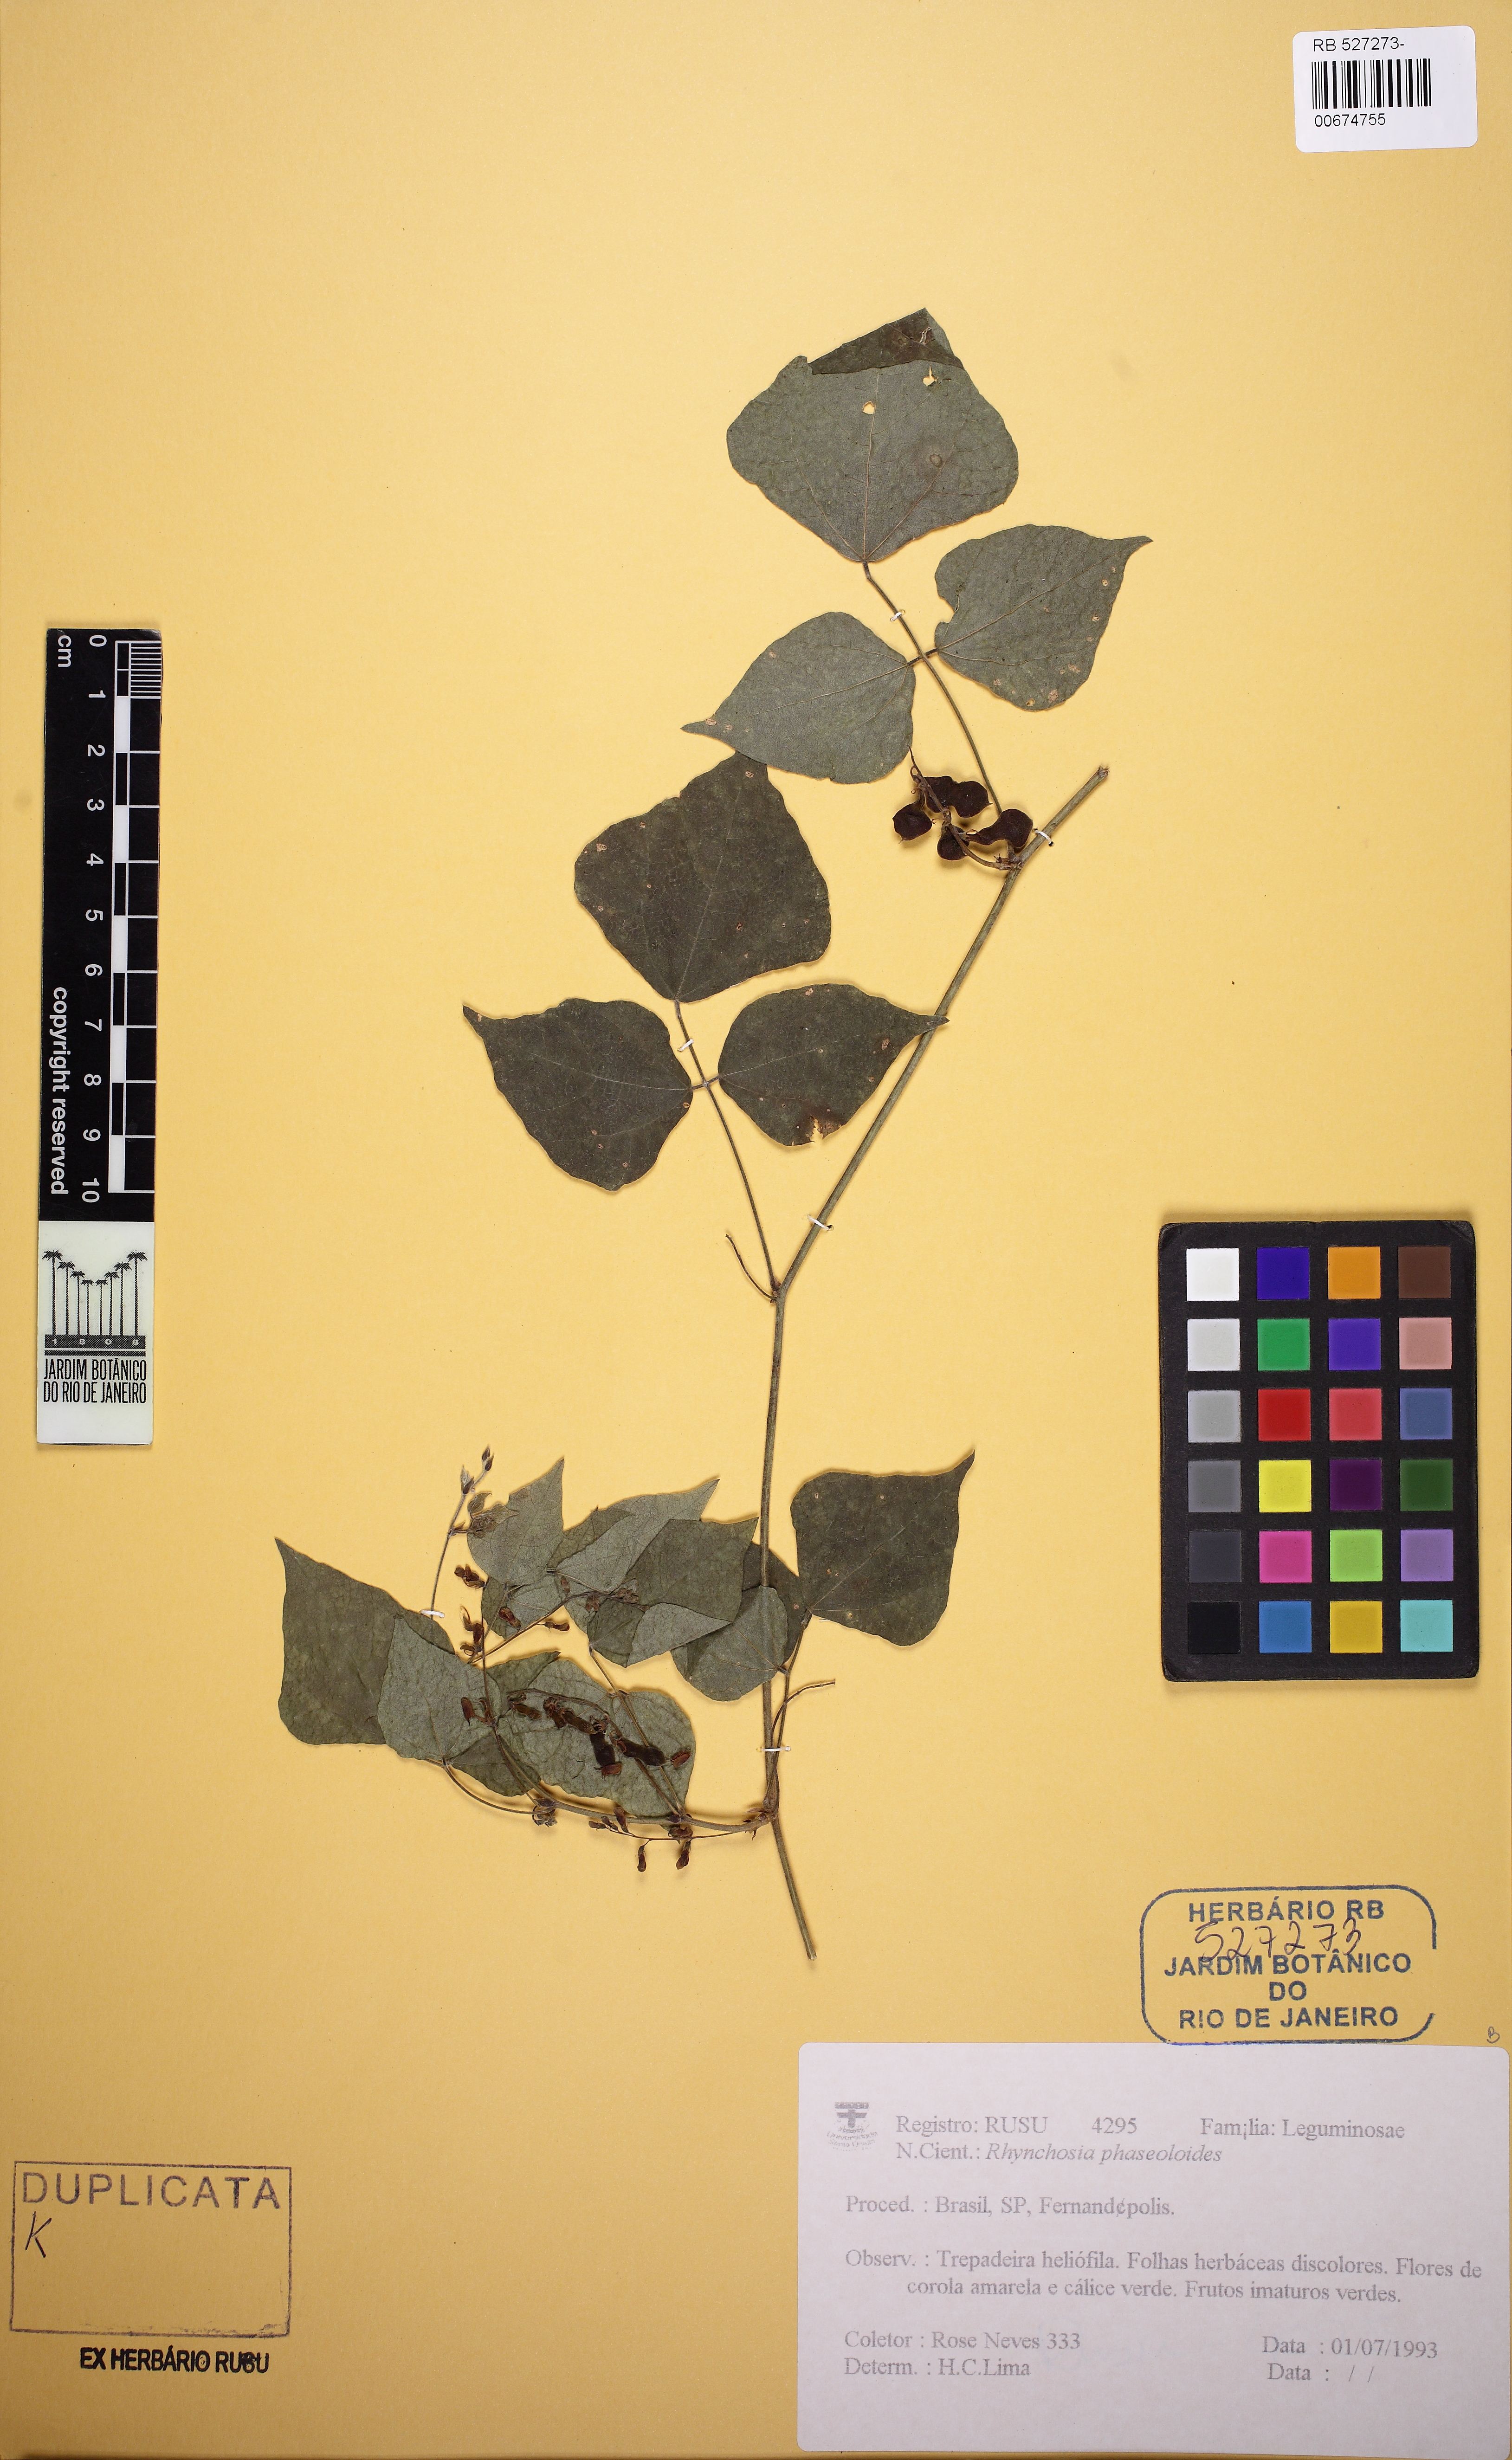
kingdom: Plantae
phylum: Tracheophyta
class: Magnoliopsida
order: Fabales
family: Fabaceae
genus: Rhynchosia
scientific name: Rhynchosia phaseoloides
